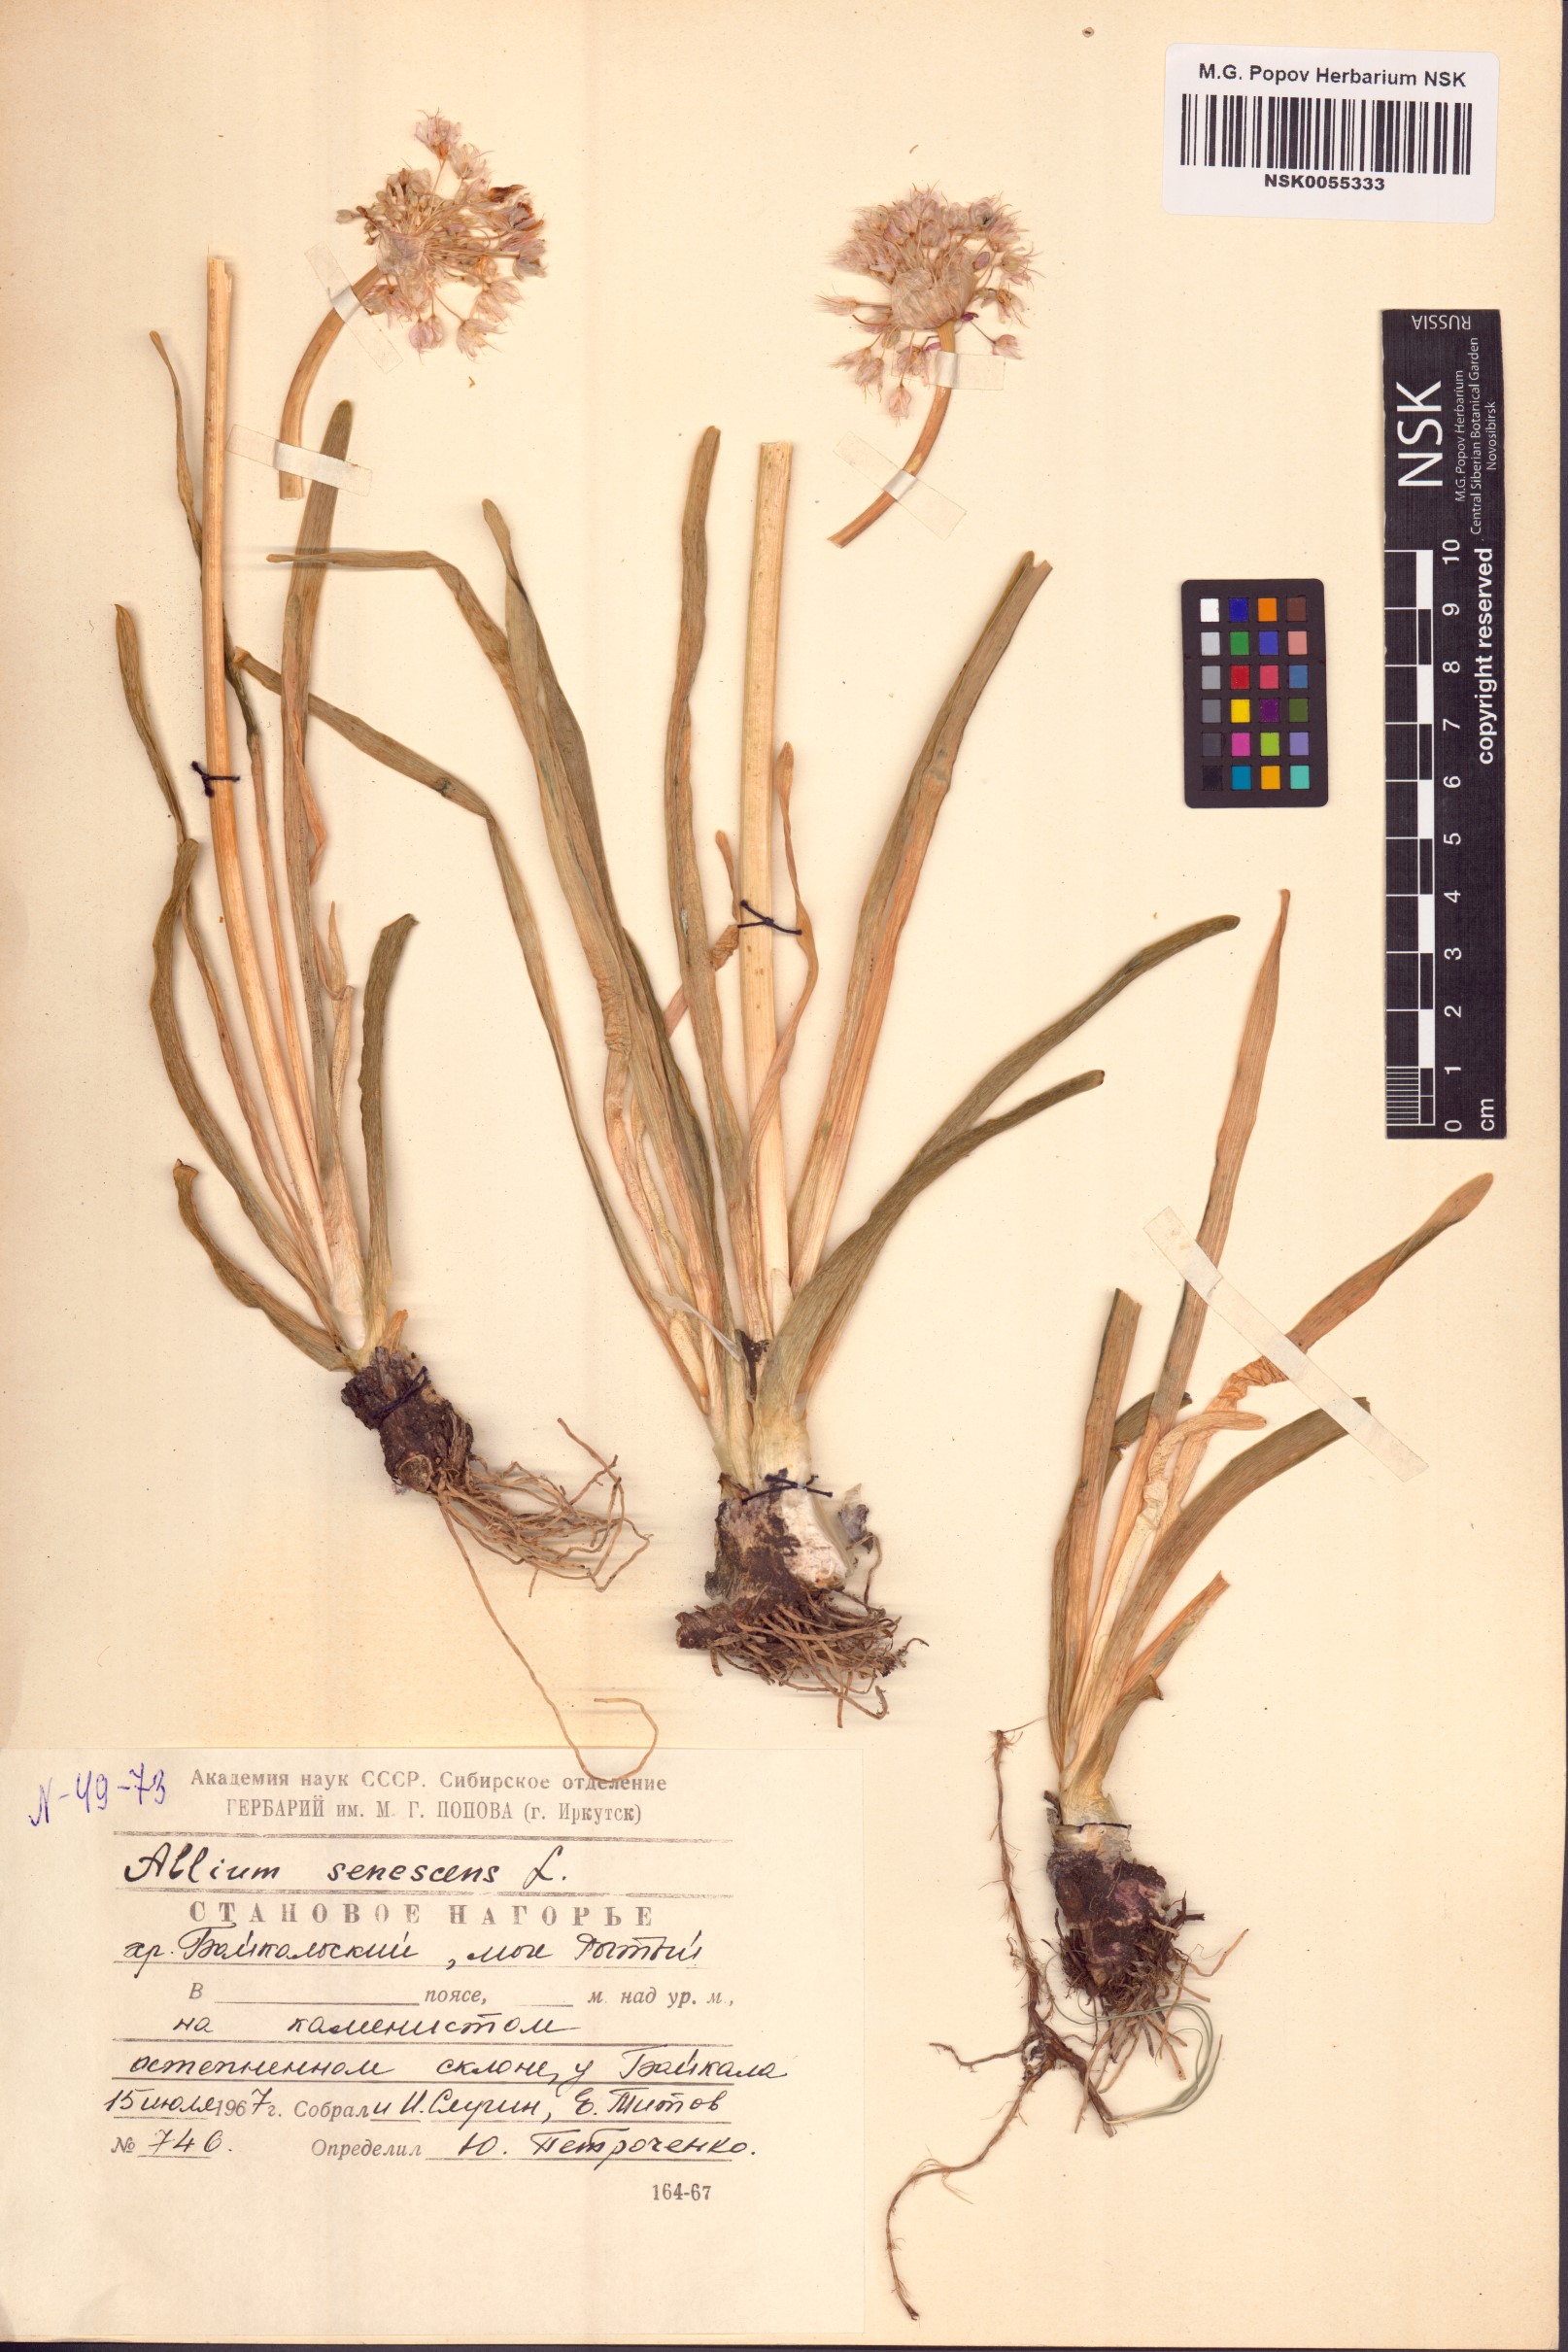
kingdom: Plantae
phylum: Tracheophyta
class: Liliopsida
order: Asparagales
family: Amaryllidaceae
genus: Allium
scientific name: Allium senescens
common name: German garlic
